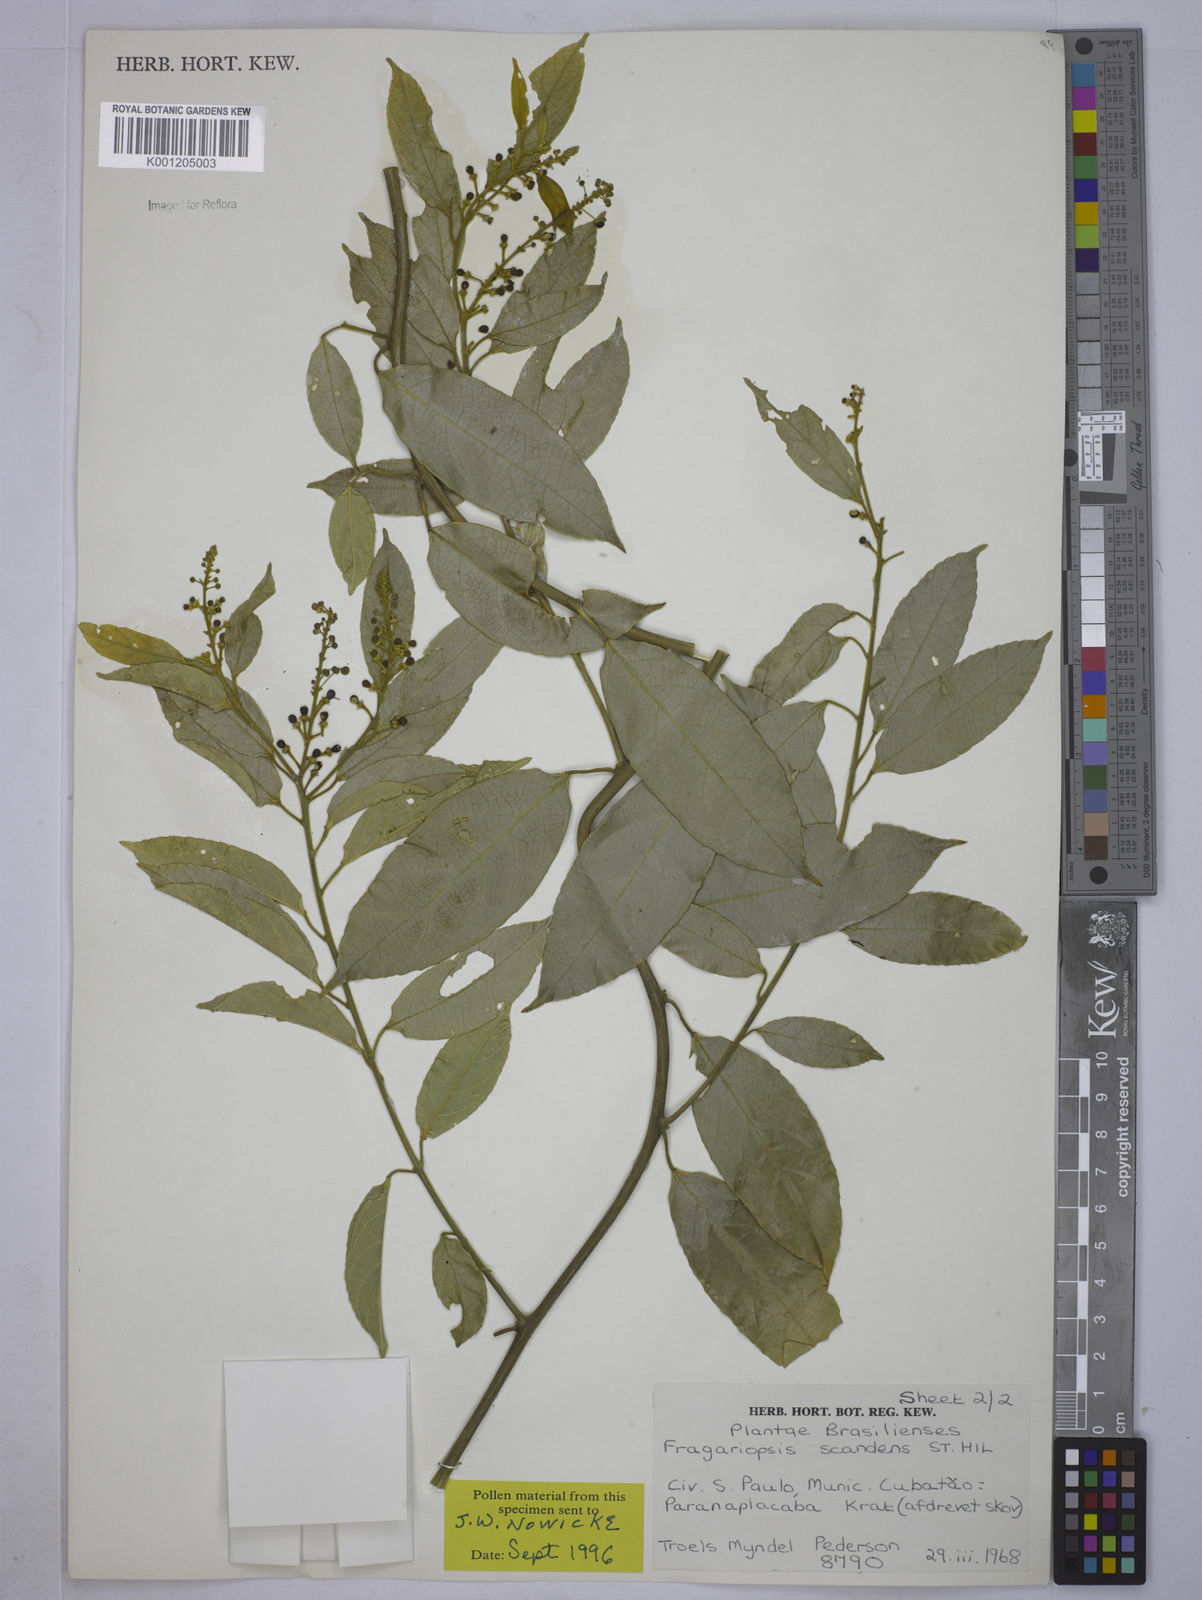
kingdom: Plantae
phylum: Tracheophyta
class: Magnoliopsida
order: Malpighiales
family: Euphorbiaceae
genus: Plukenetia
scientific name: Plukenetia serrata
